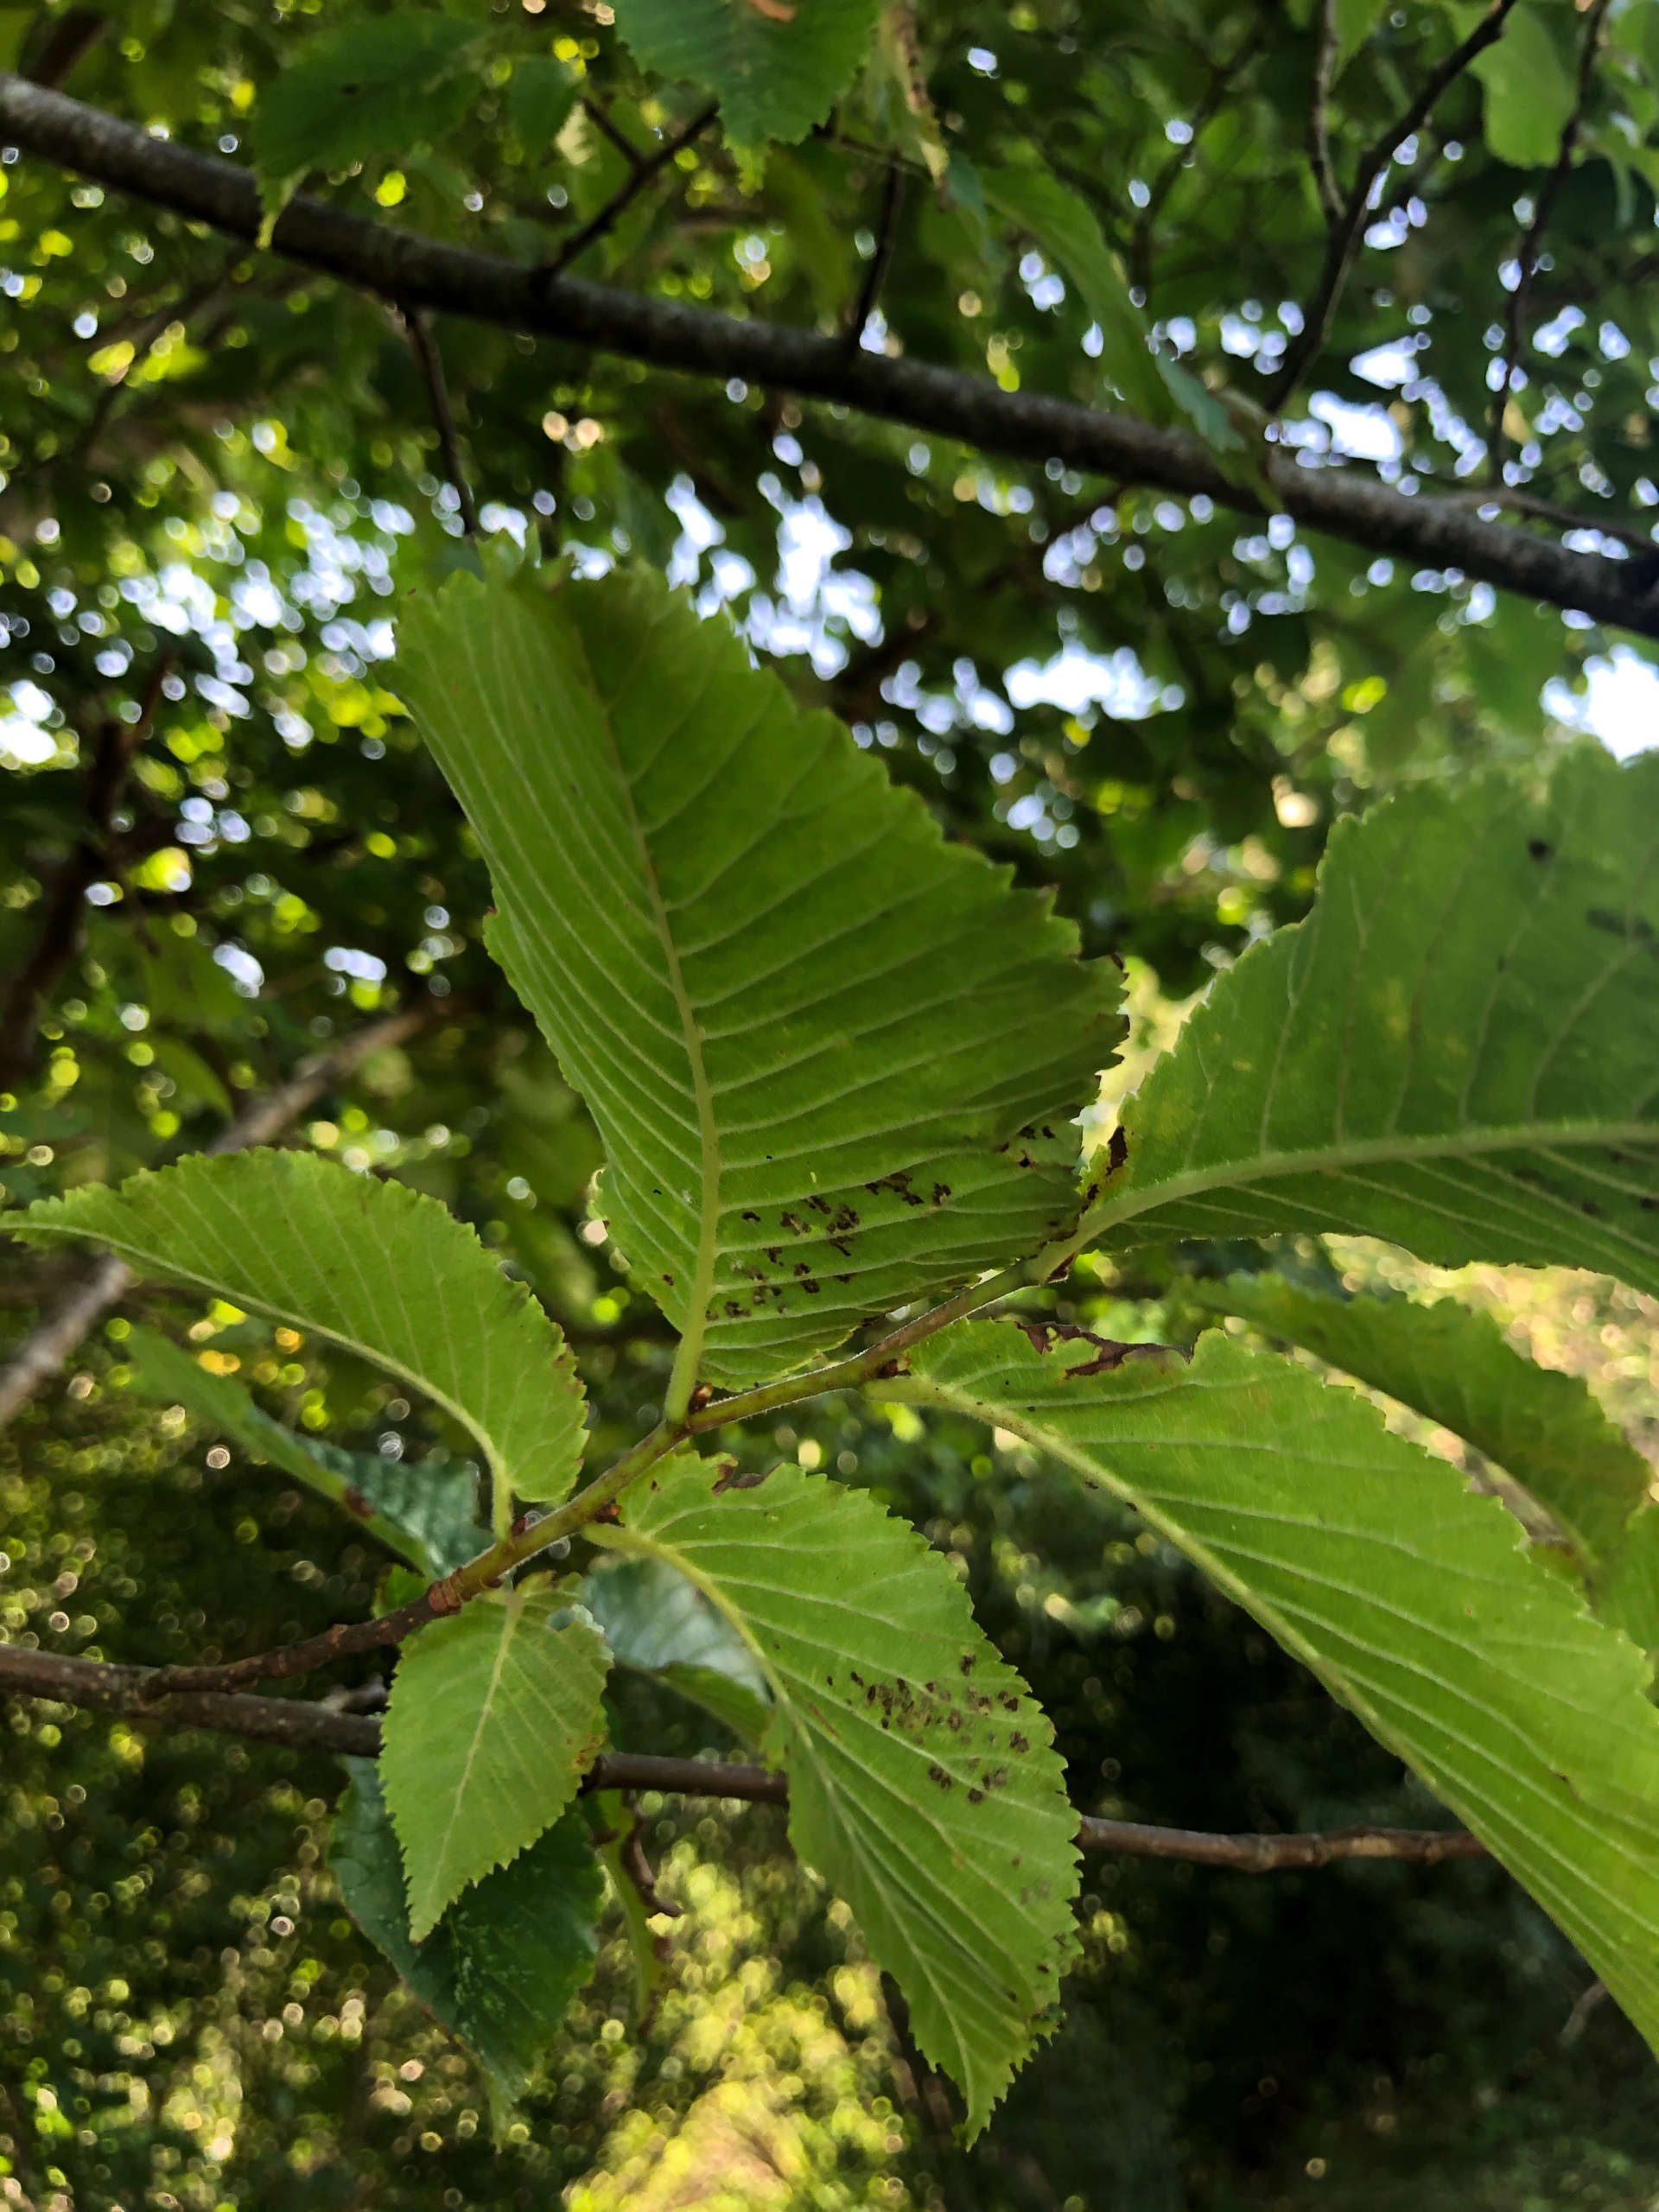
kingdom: Plantae
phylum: Tracheophyta
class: Magnoliopsida
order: Rosales
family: Ulmaceae
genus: Ulmus
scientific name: Ulmus glabra
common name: Skov-elm/storbladet elm
